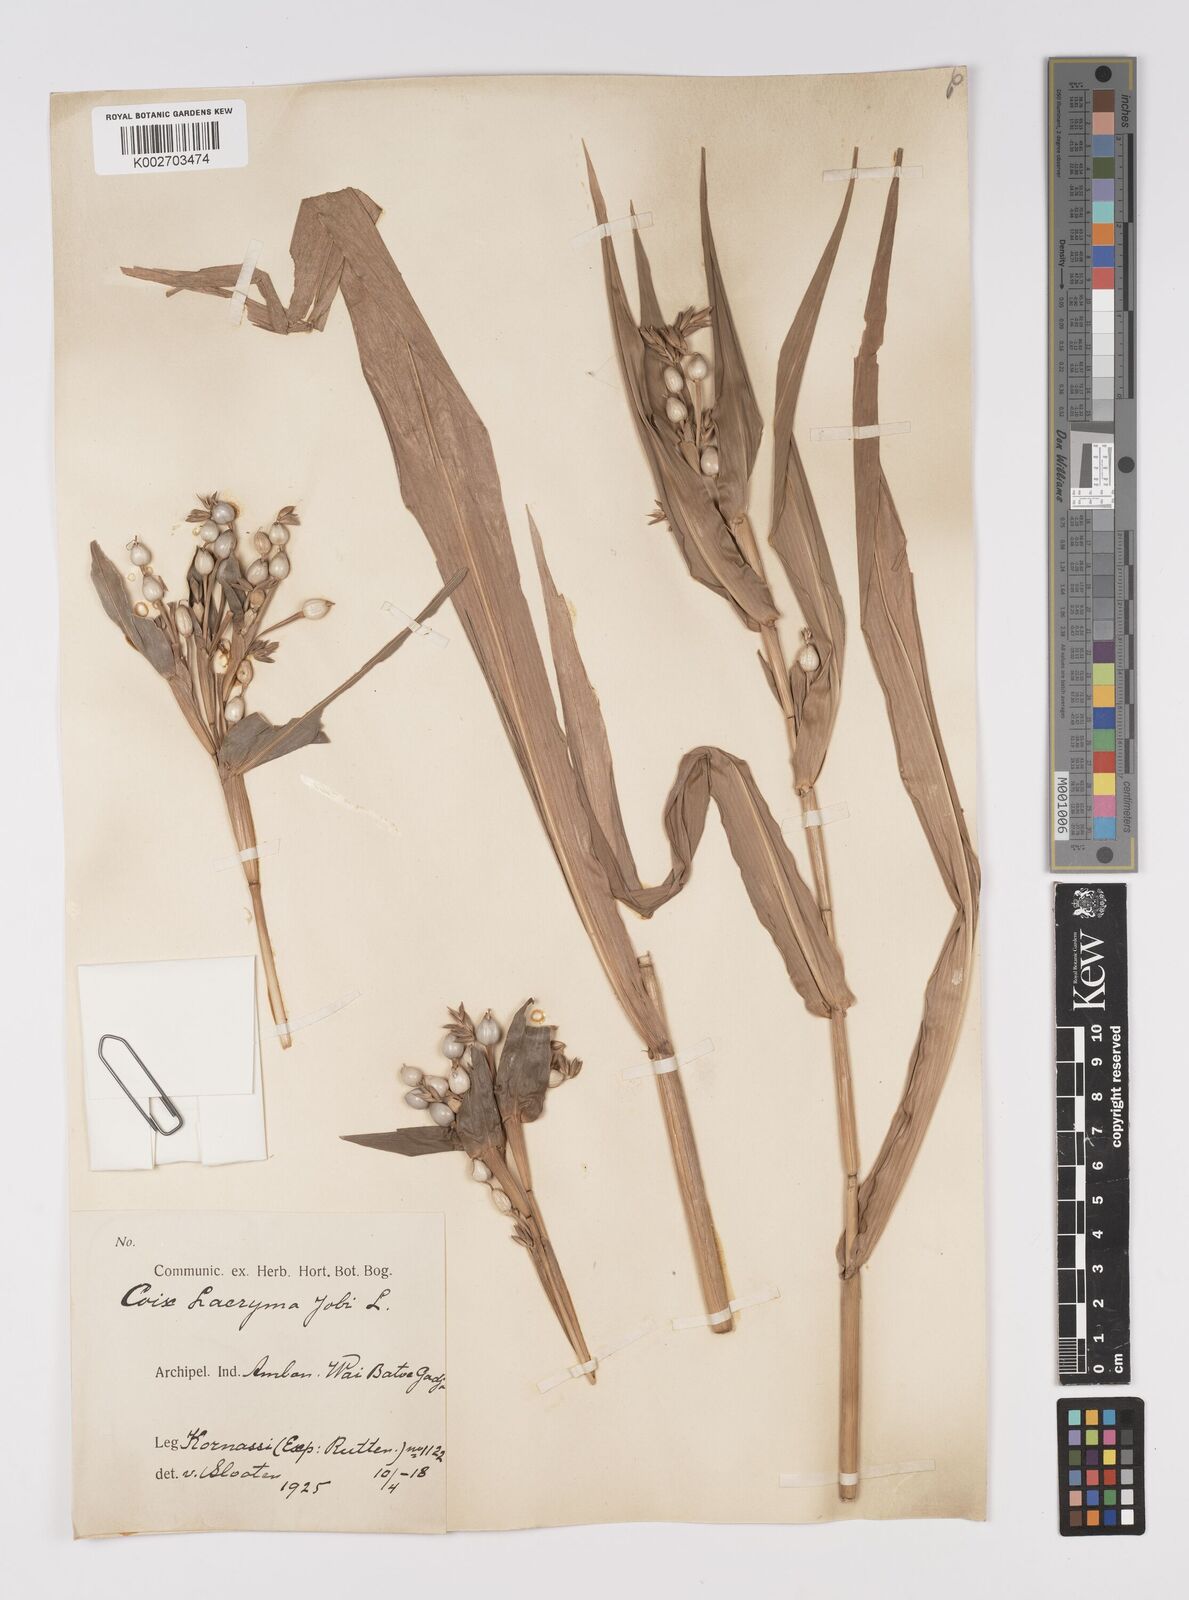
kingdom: Plantae
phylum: Tracheophyta
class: Liliopsida
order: Poales
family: Poaceae
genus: Coix
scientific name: Coix lacryma-jobi
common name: Job's tears
